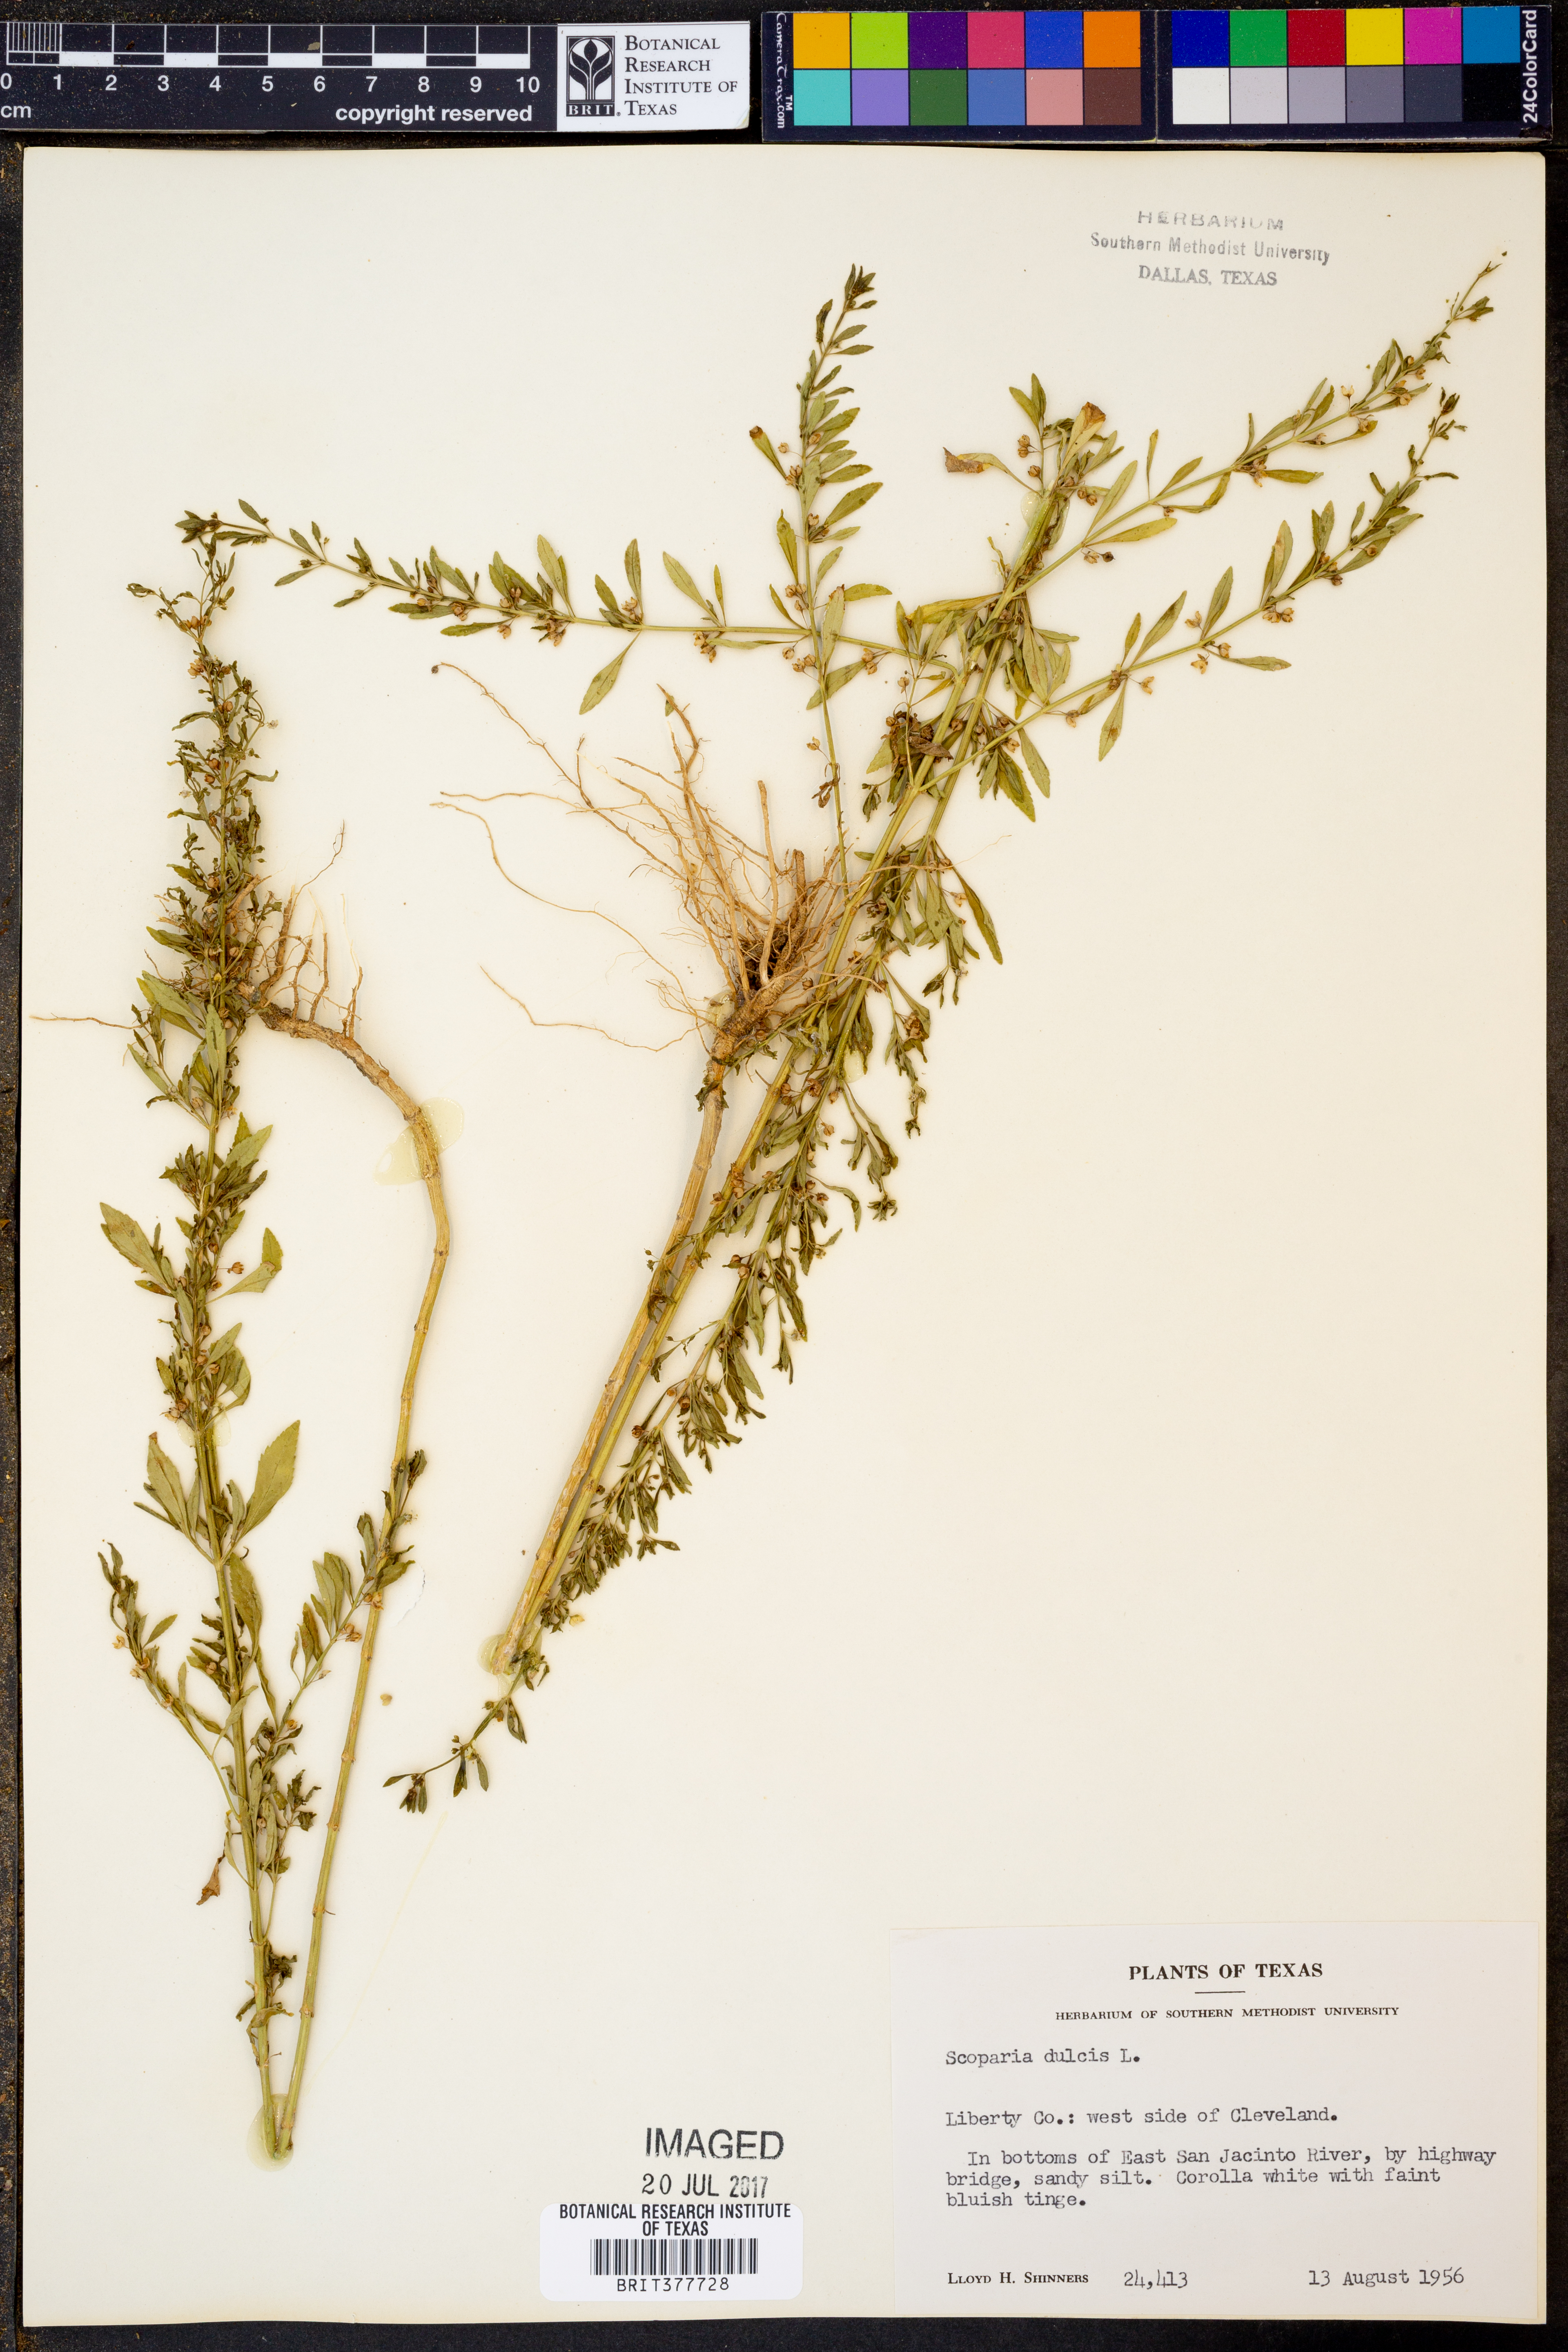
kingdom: Plantae
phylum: Tracheophyta
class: Magnoliopsida
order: Lamiales
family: Plantaginaceae
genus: Scoparia
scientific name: Scoparia dulcis
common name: Scoparia-weed
